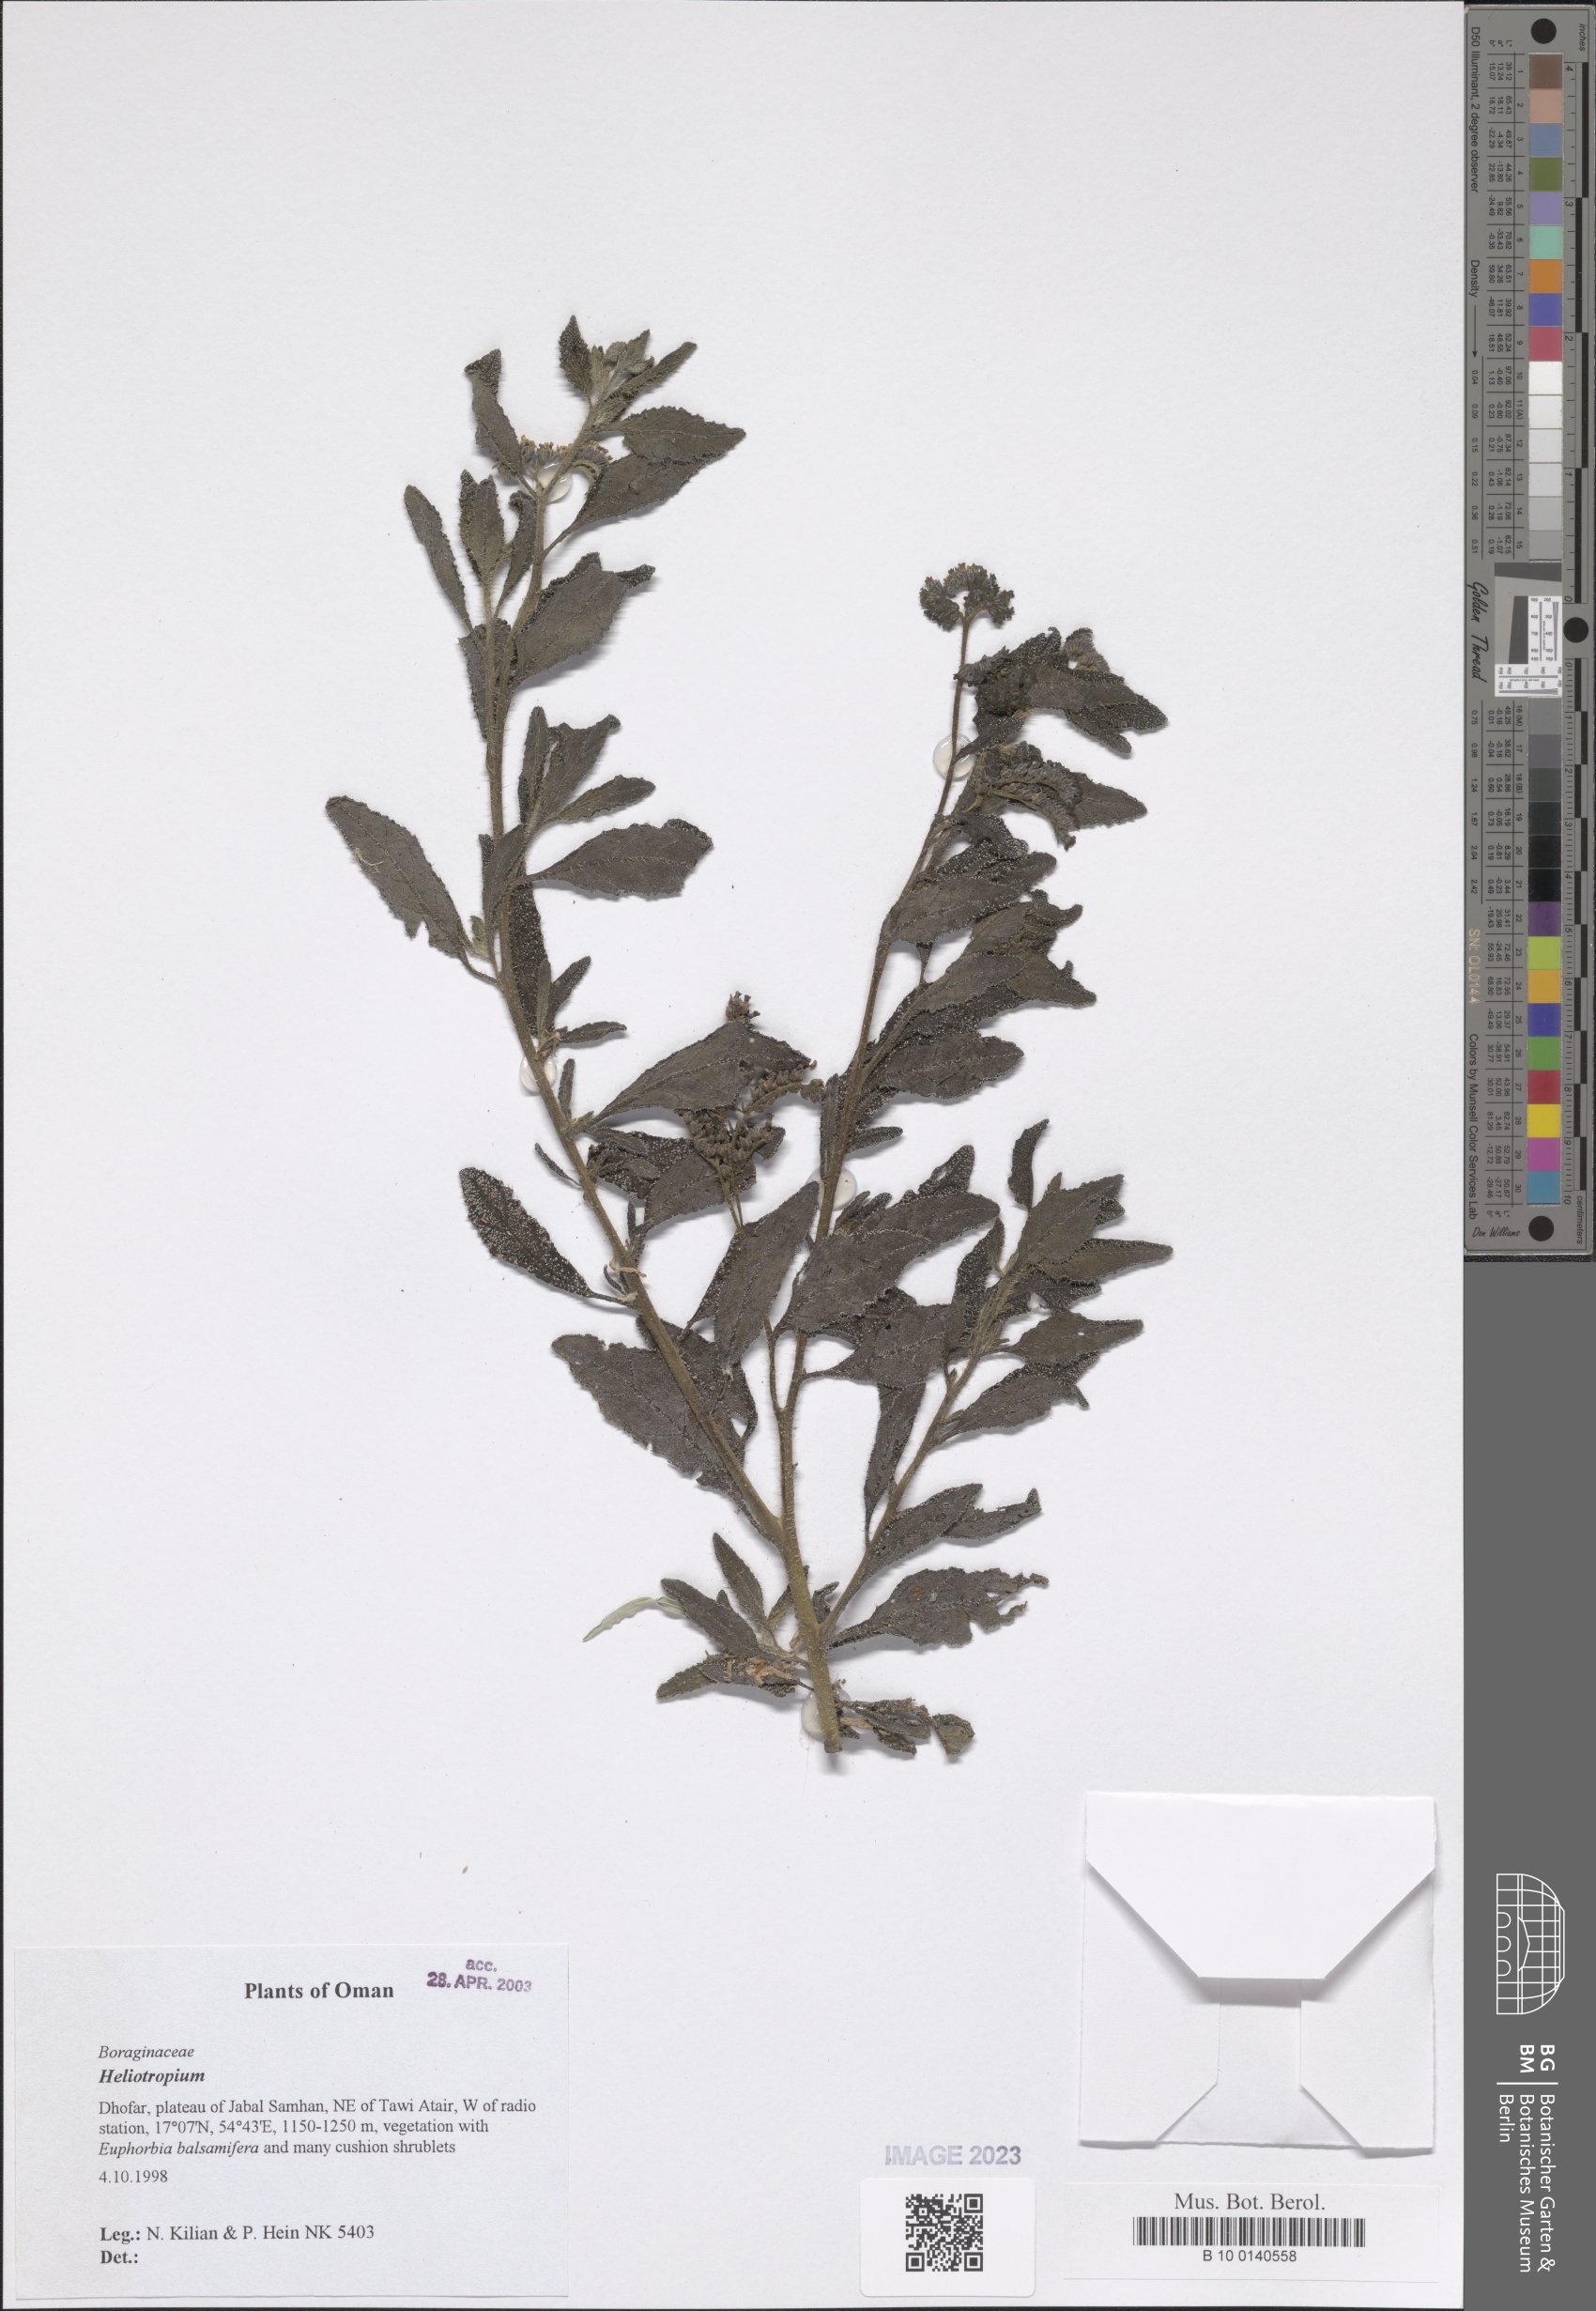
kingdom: Plantae
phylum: Tracheophyta
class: Magnoliopsida
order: Boraginales
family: Heliotropiaceae
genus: Heliotropium
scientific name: Heliotropium
